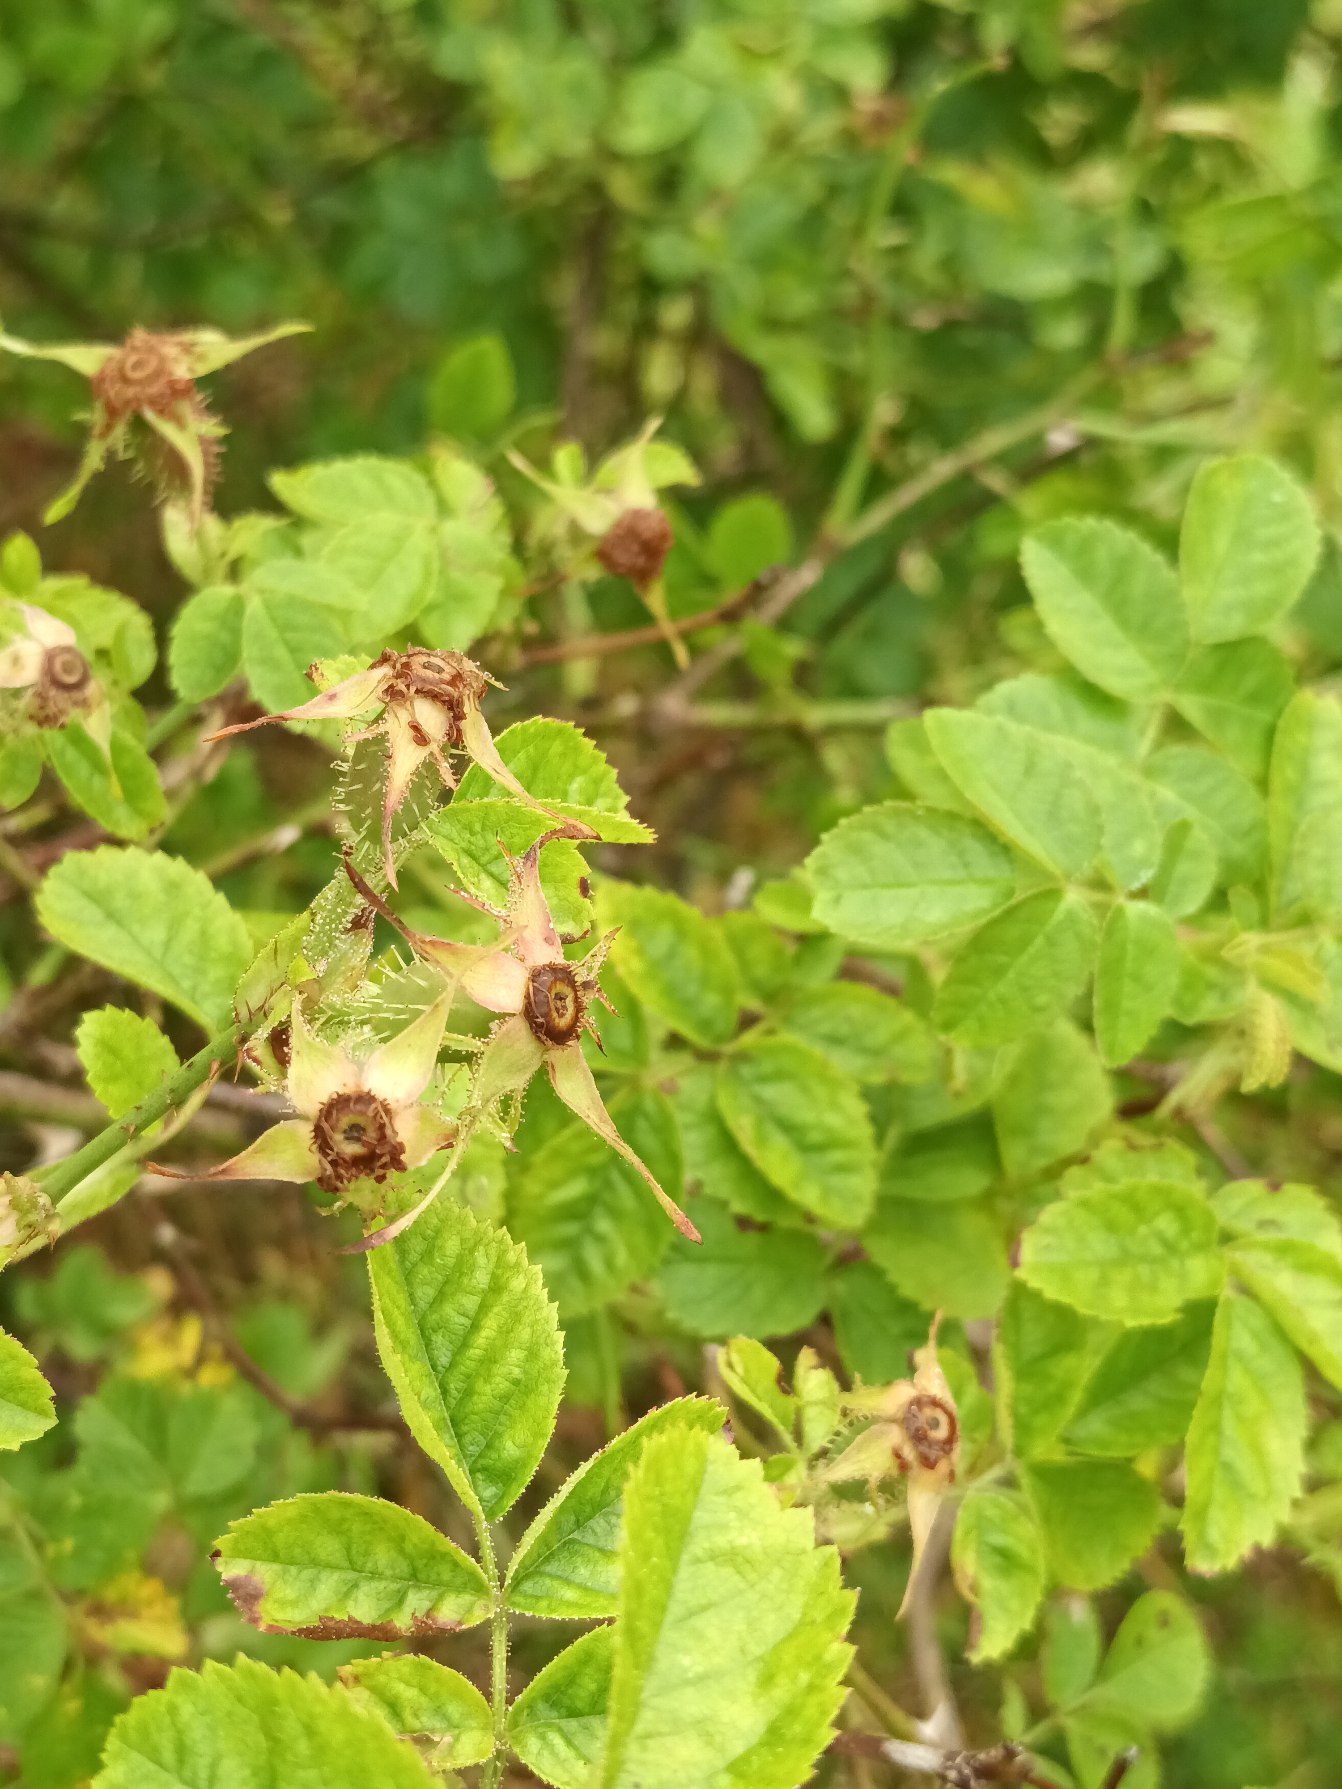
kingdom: Plantae
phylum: Tracheophyta
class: Magnoliopsida
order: Rosales
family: Rosaceae
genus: Rosa
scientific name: Rosa micrantha
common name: Småblomstret rose
